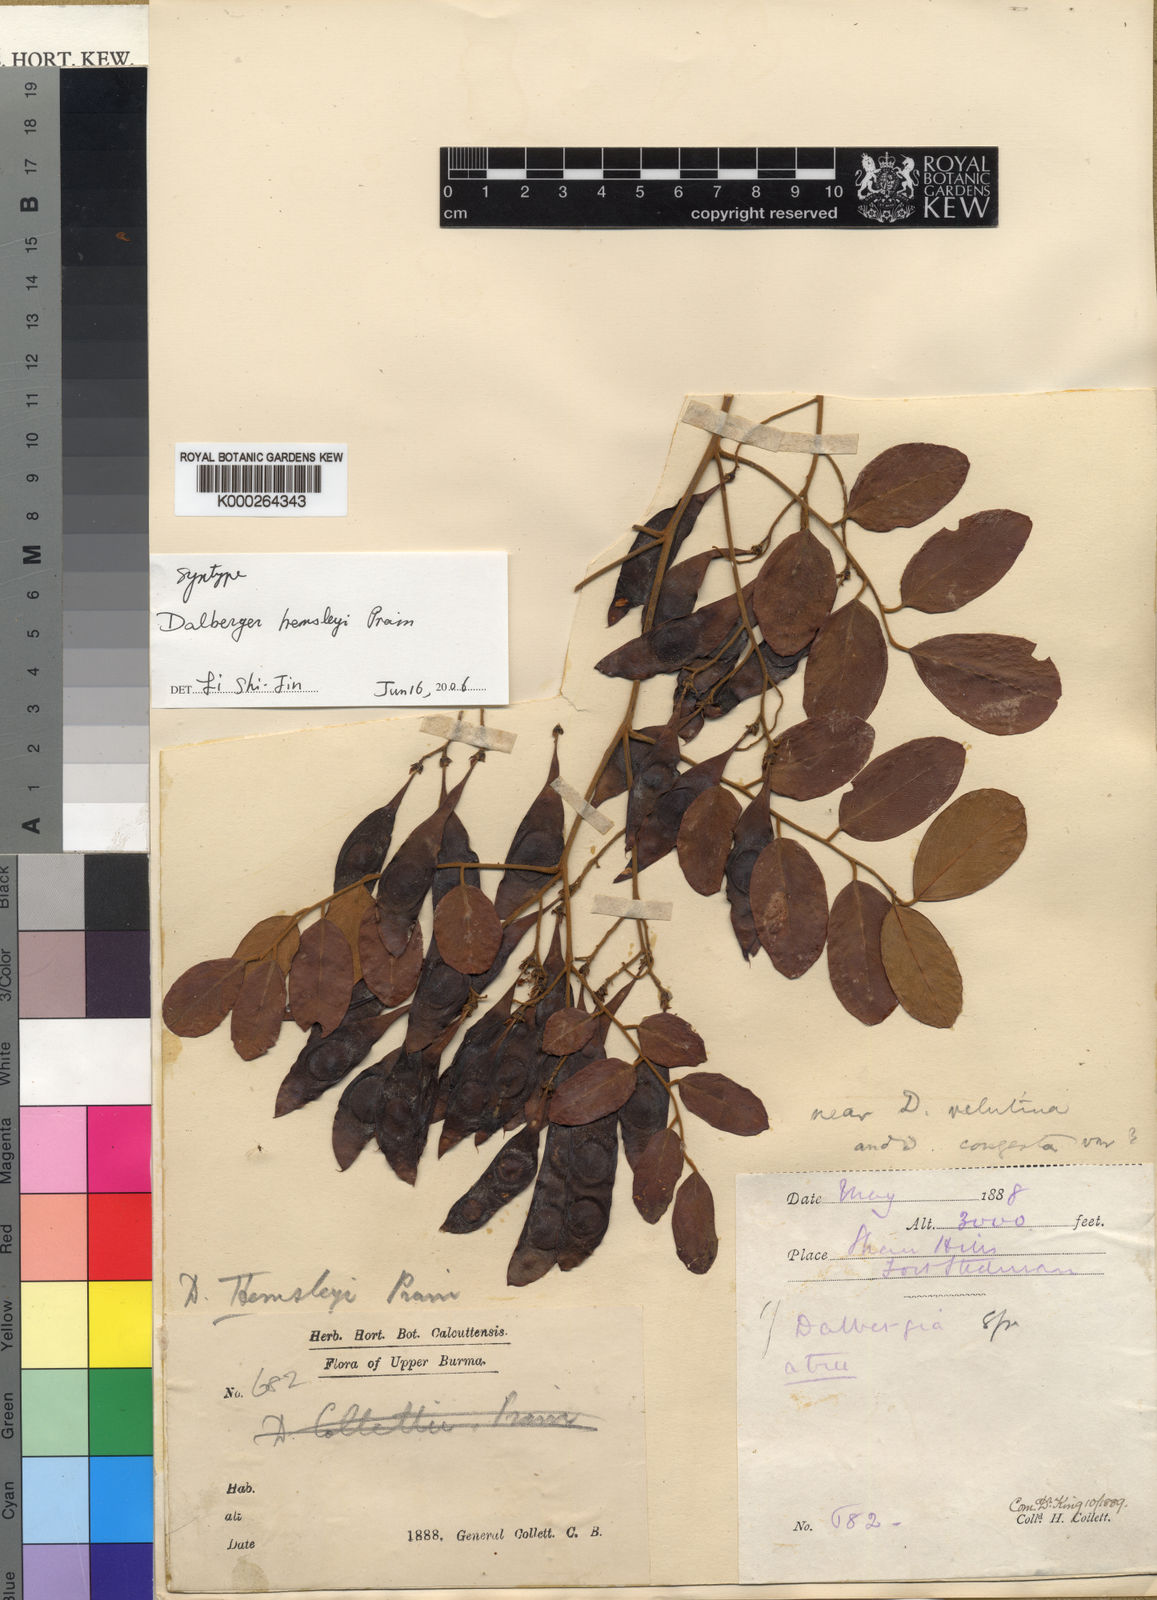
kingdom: Plantae
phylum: Tracheophyta
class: Magnoliopsida
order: Fabales
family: Fabaceae
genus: Dalbergia
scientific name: Dalbergia lanceolaria
